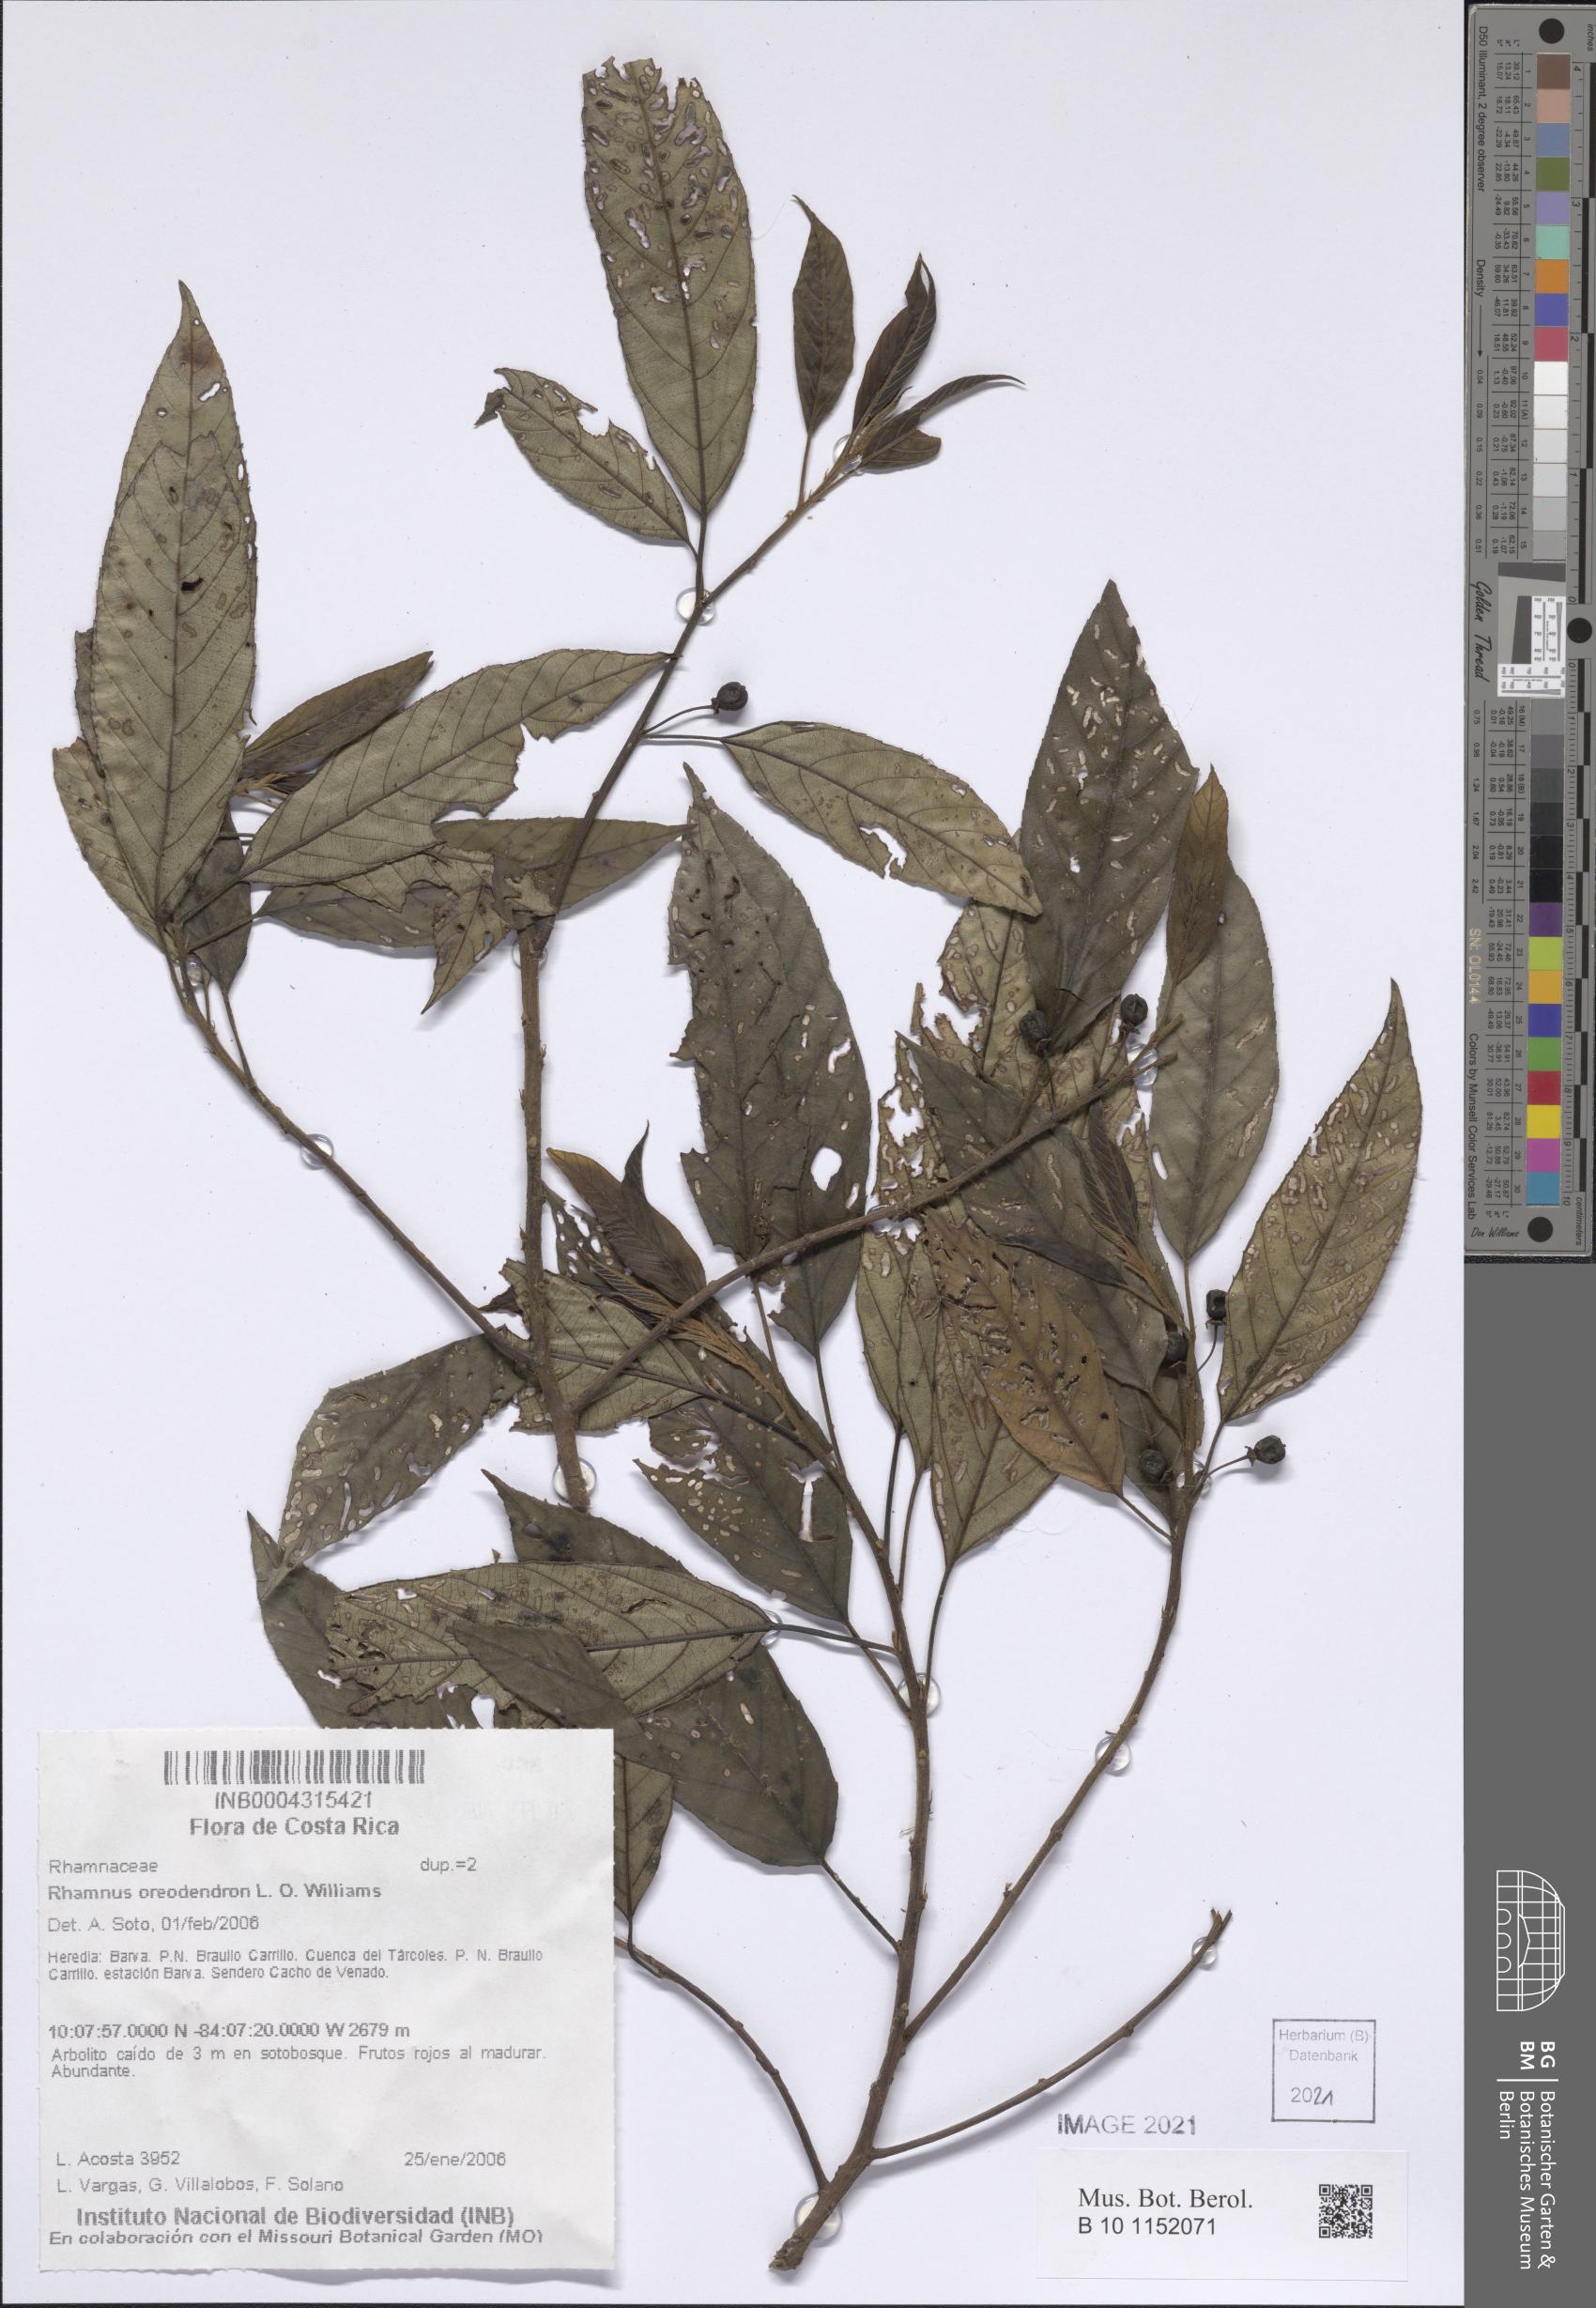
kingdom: Plantae
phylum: Tracheophyta
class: Magnoliopsida
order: Rosales
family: Rhamnaceae
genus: Frangula
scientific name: Frangula oreodendron
